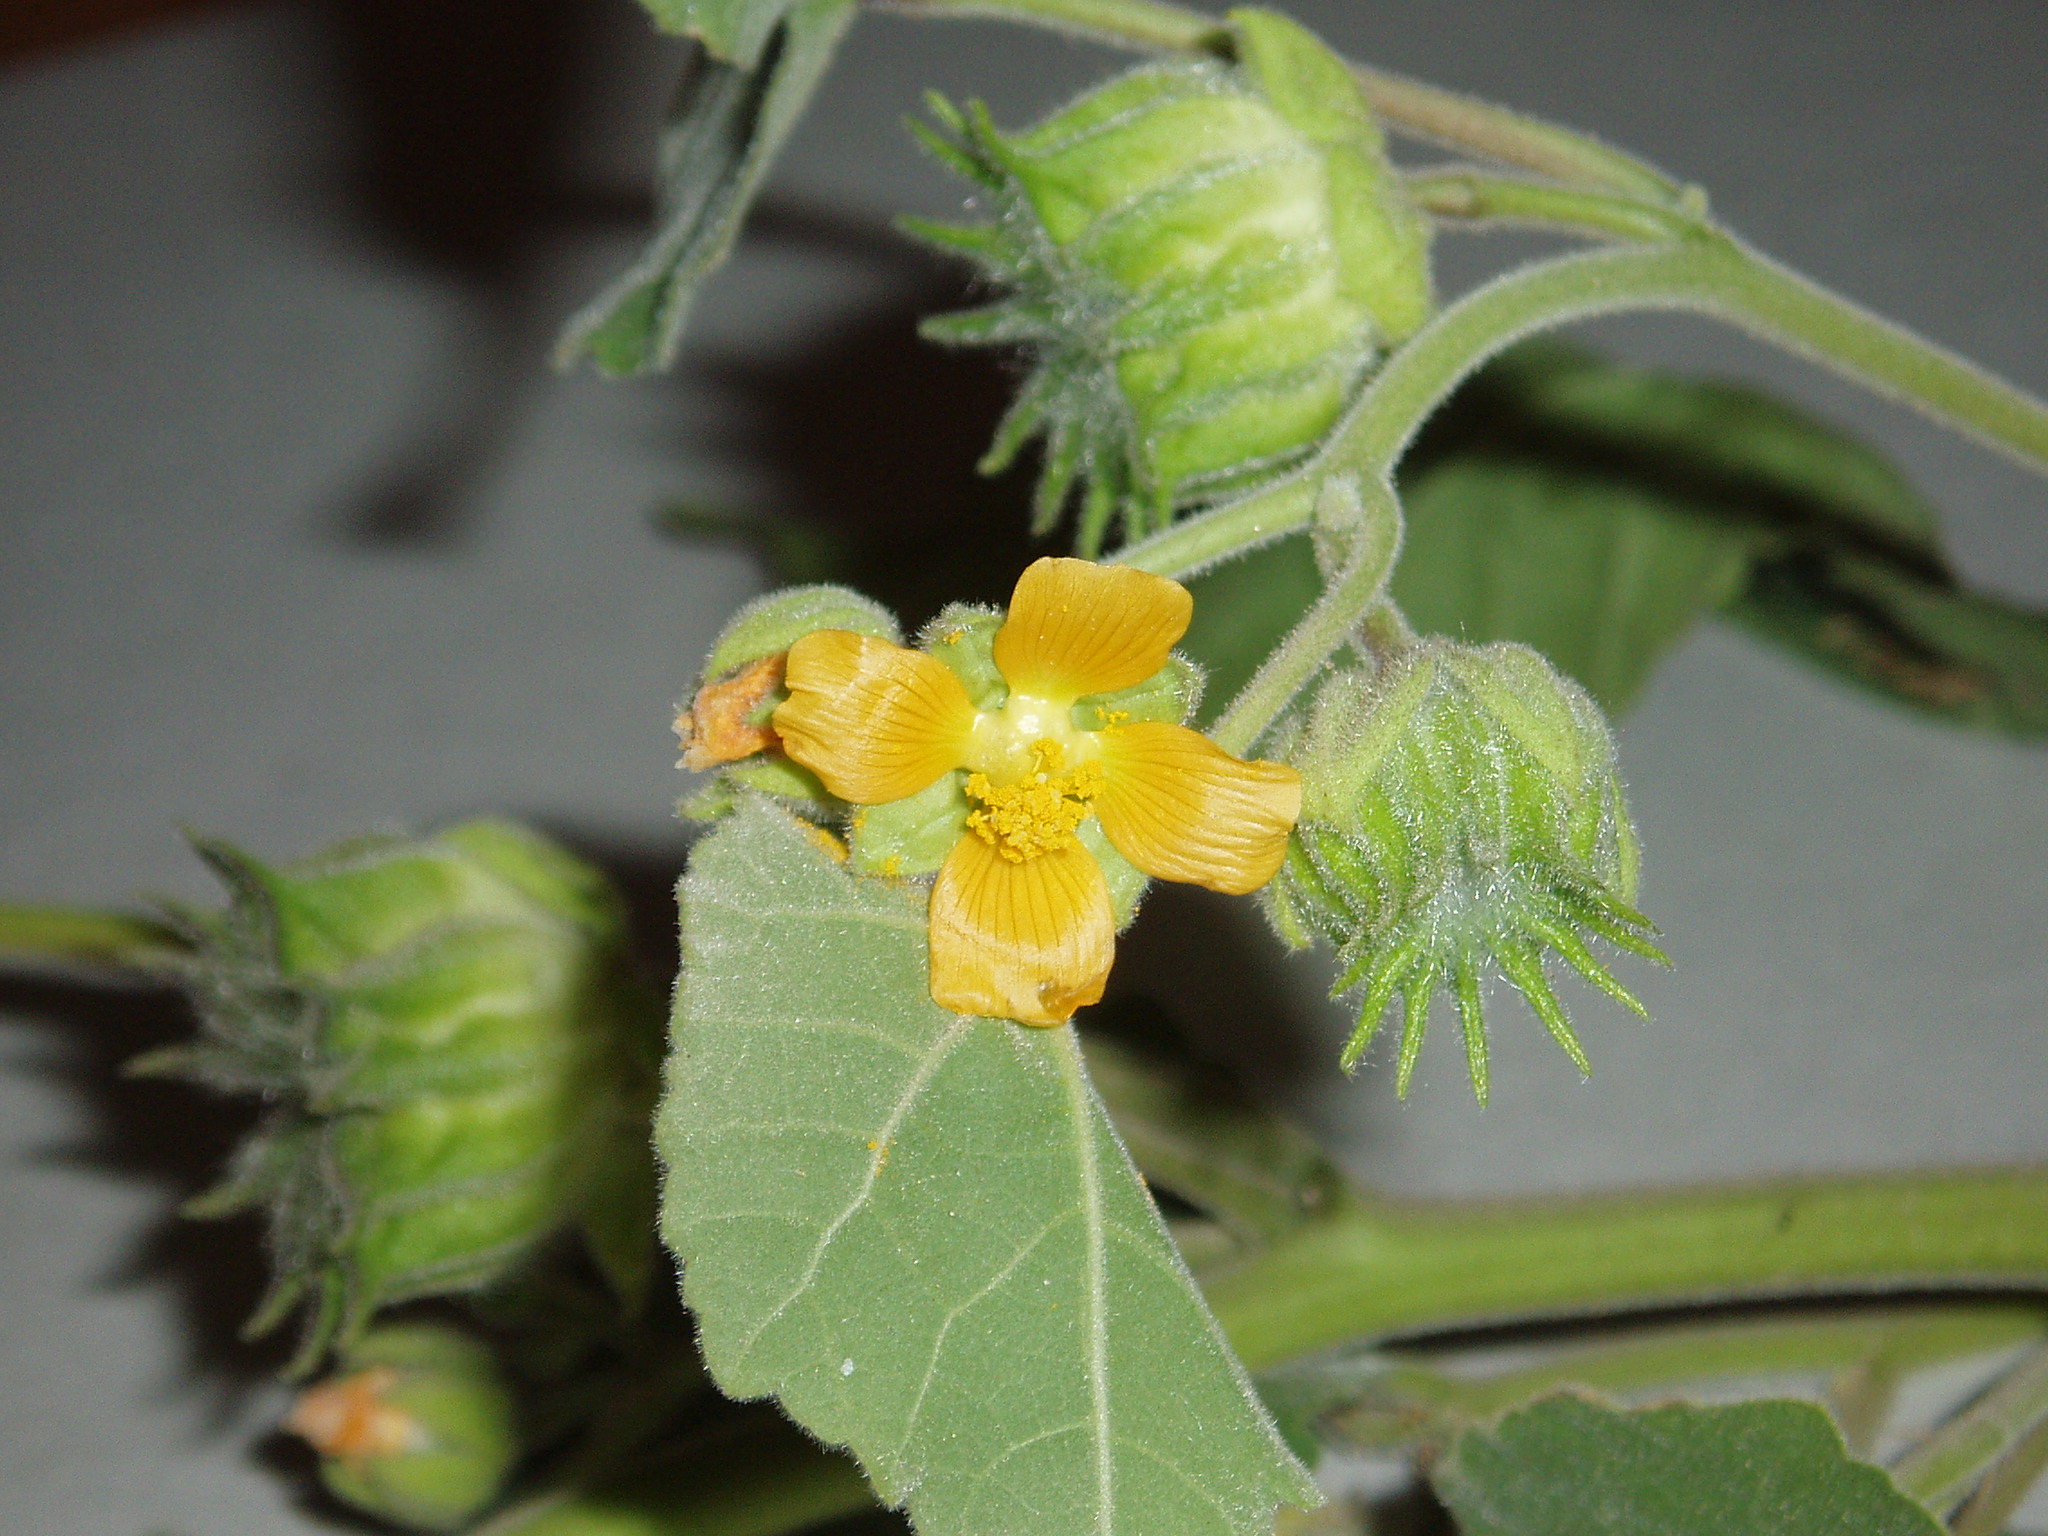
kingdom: Plantae
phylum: Tracheophyta
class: Magnoliopsida
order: Malvales
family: Malvaceae
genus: Abutilon
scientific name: Abutilon theophrasti
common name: Velvetleaf
